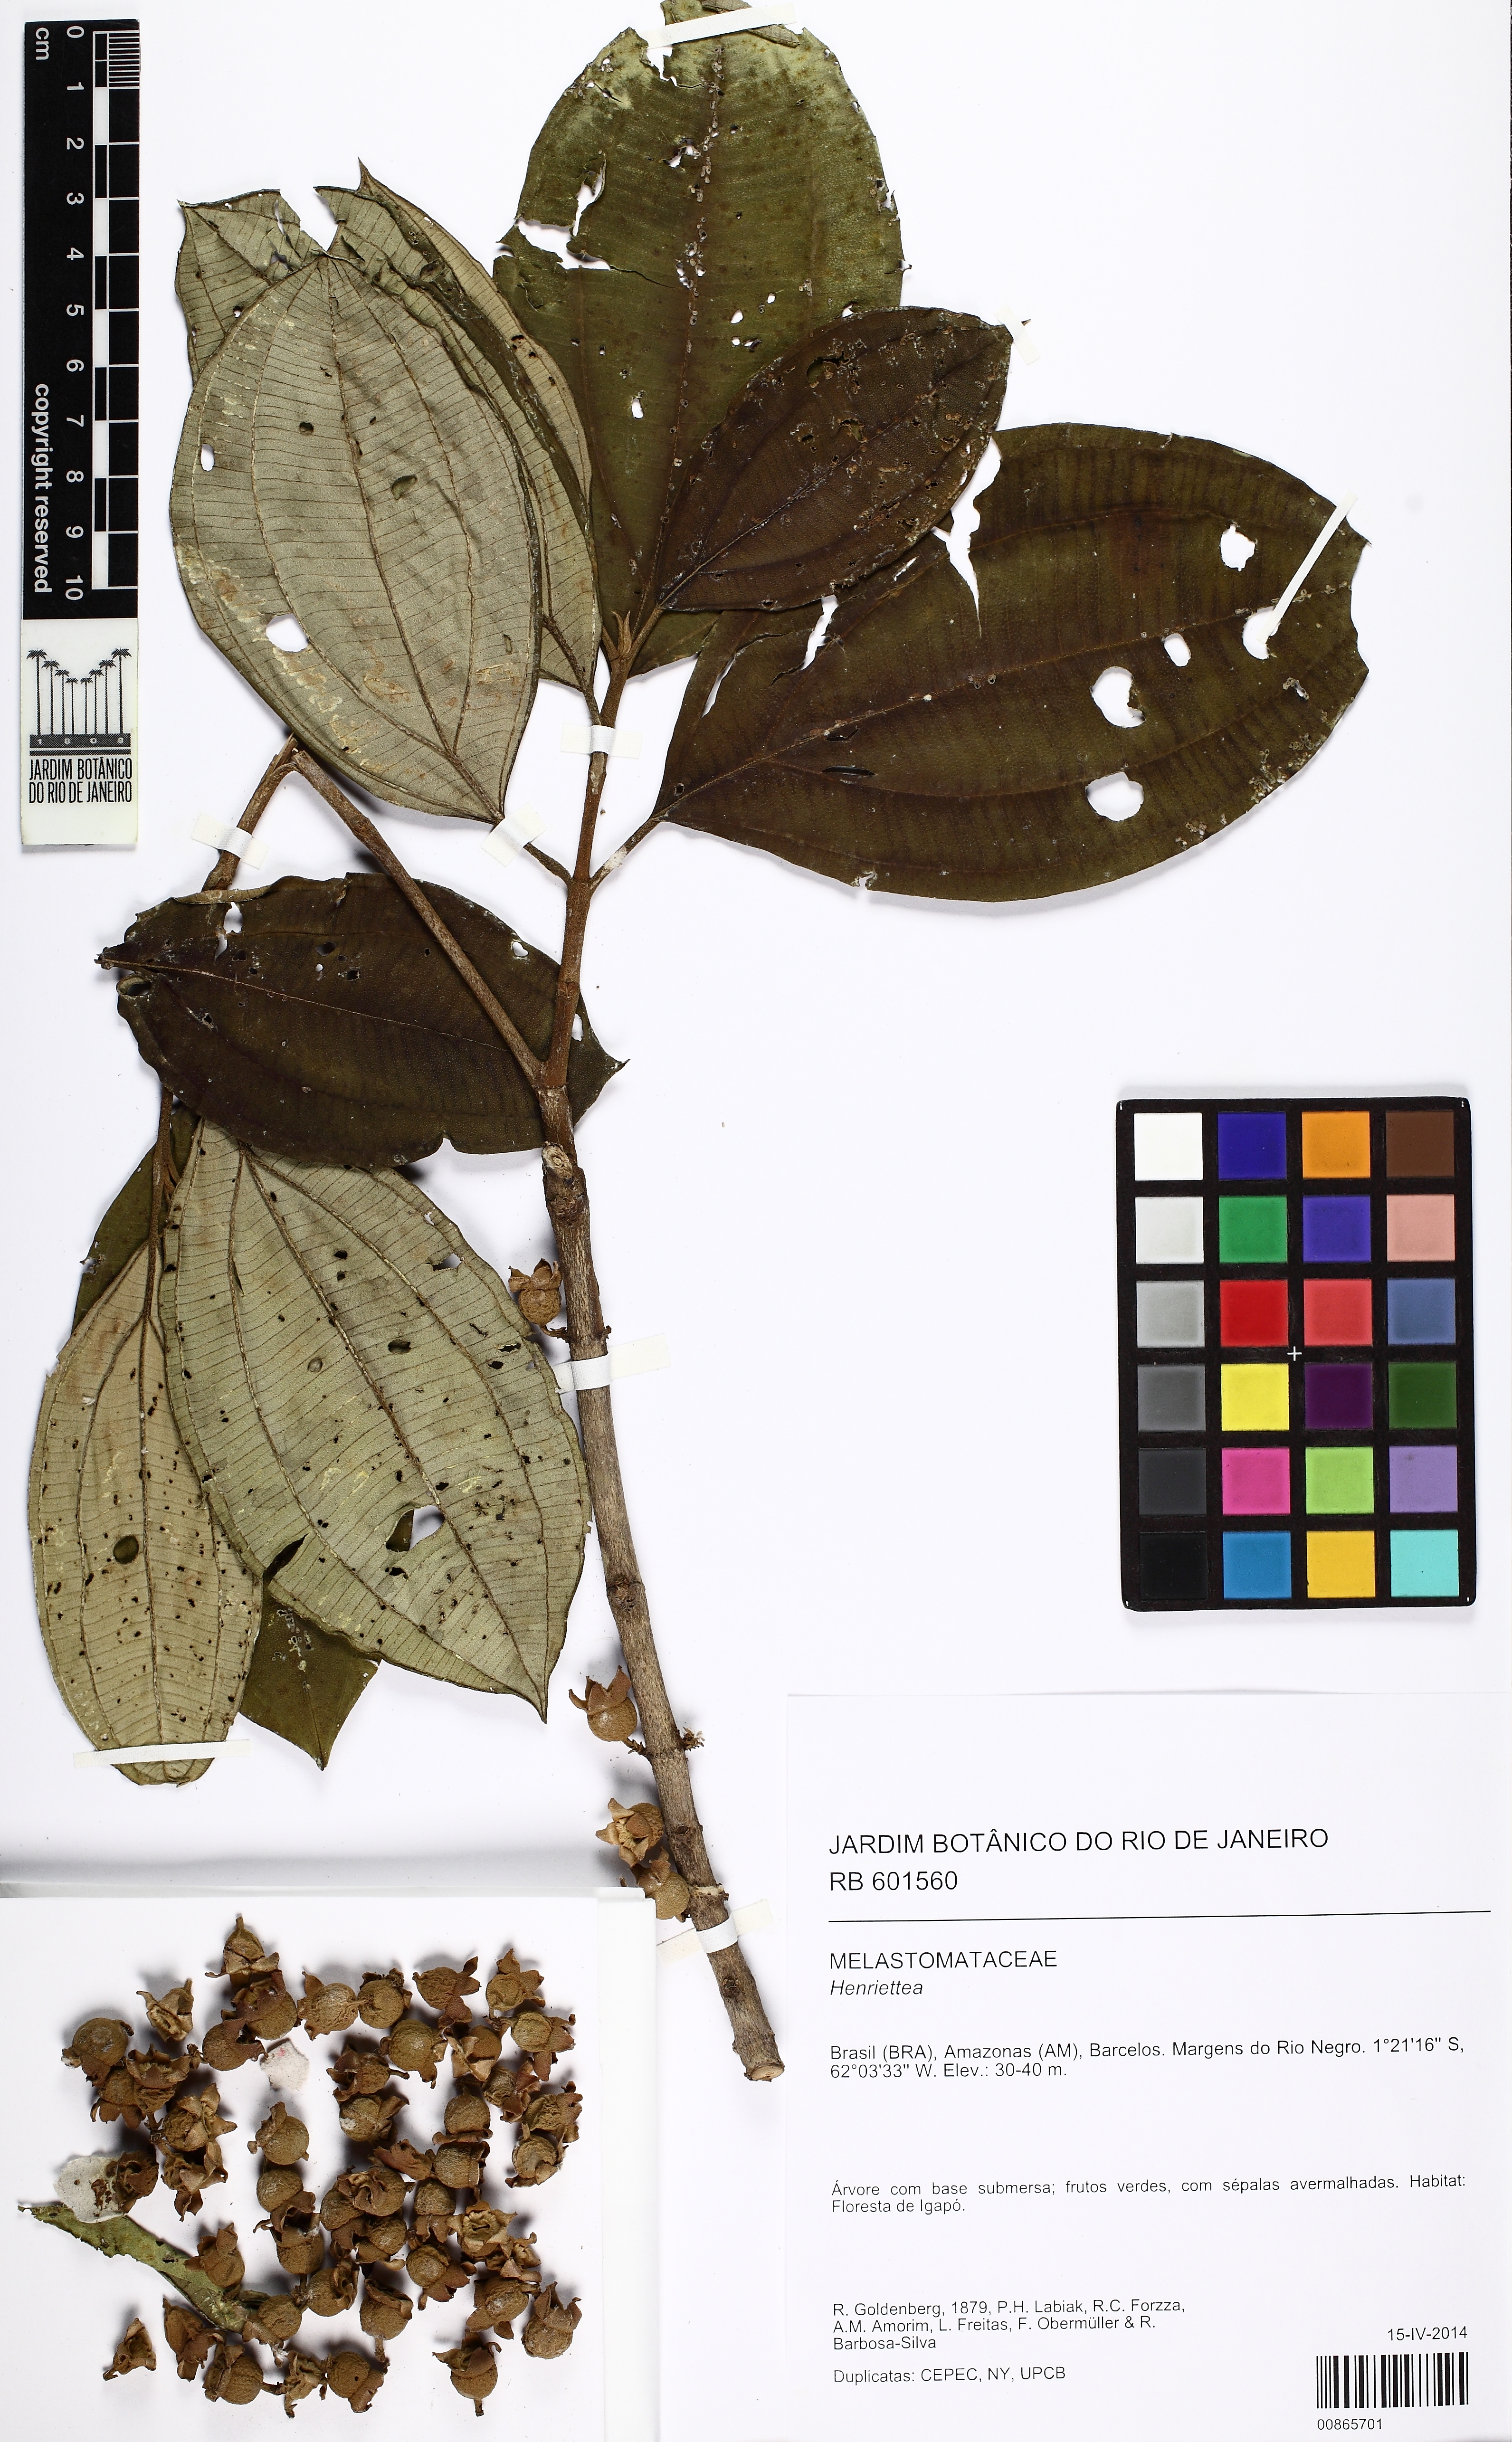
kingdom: Plantae
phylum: Tracheophyta
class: Magnoliopsida
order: Myrtales
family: Melastomataceae
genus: Henriettea
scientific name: Henriettea
